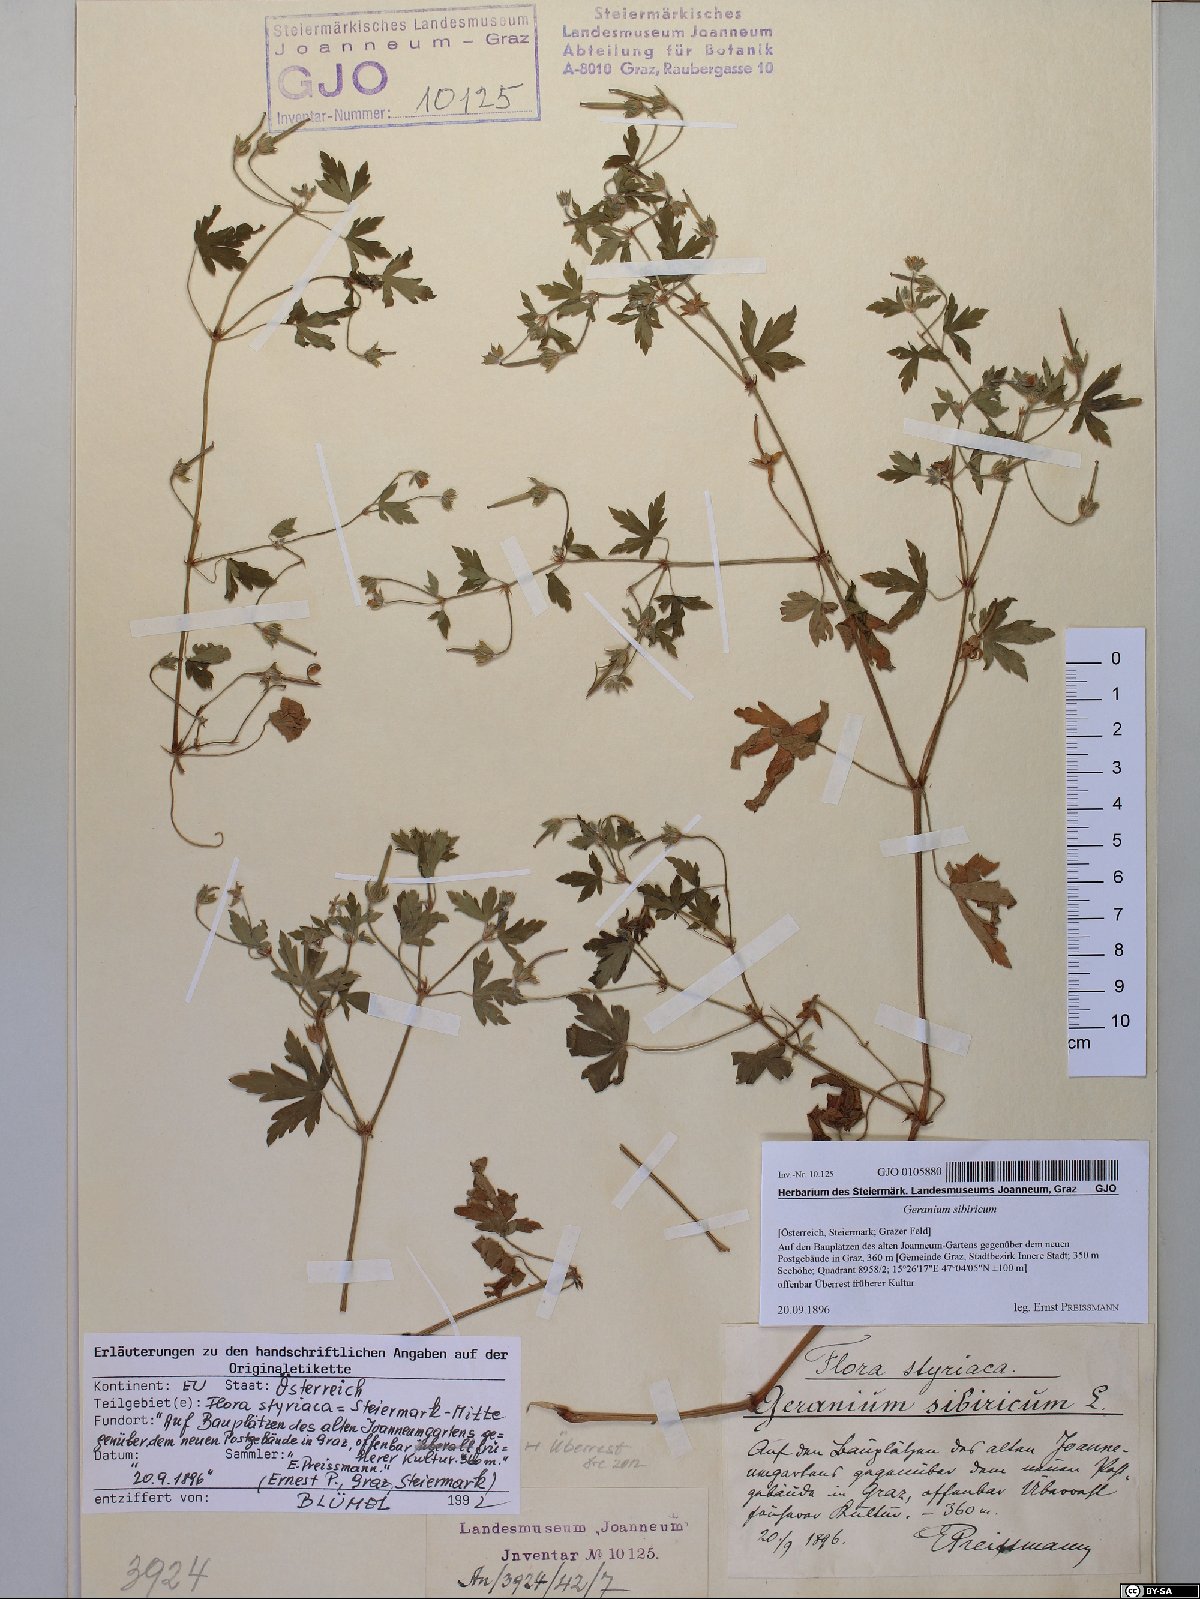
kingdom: Plantae
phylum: Tracheophyta
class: Magnoliopsida
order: Geraniales
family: Geraniaceae
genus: Geranium
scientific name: Geranium sibiricum
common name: Siberian crane's-bill
